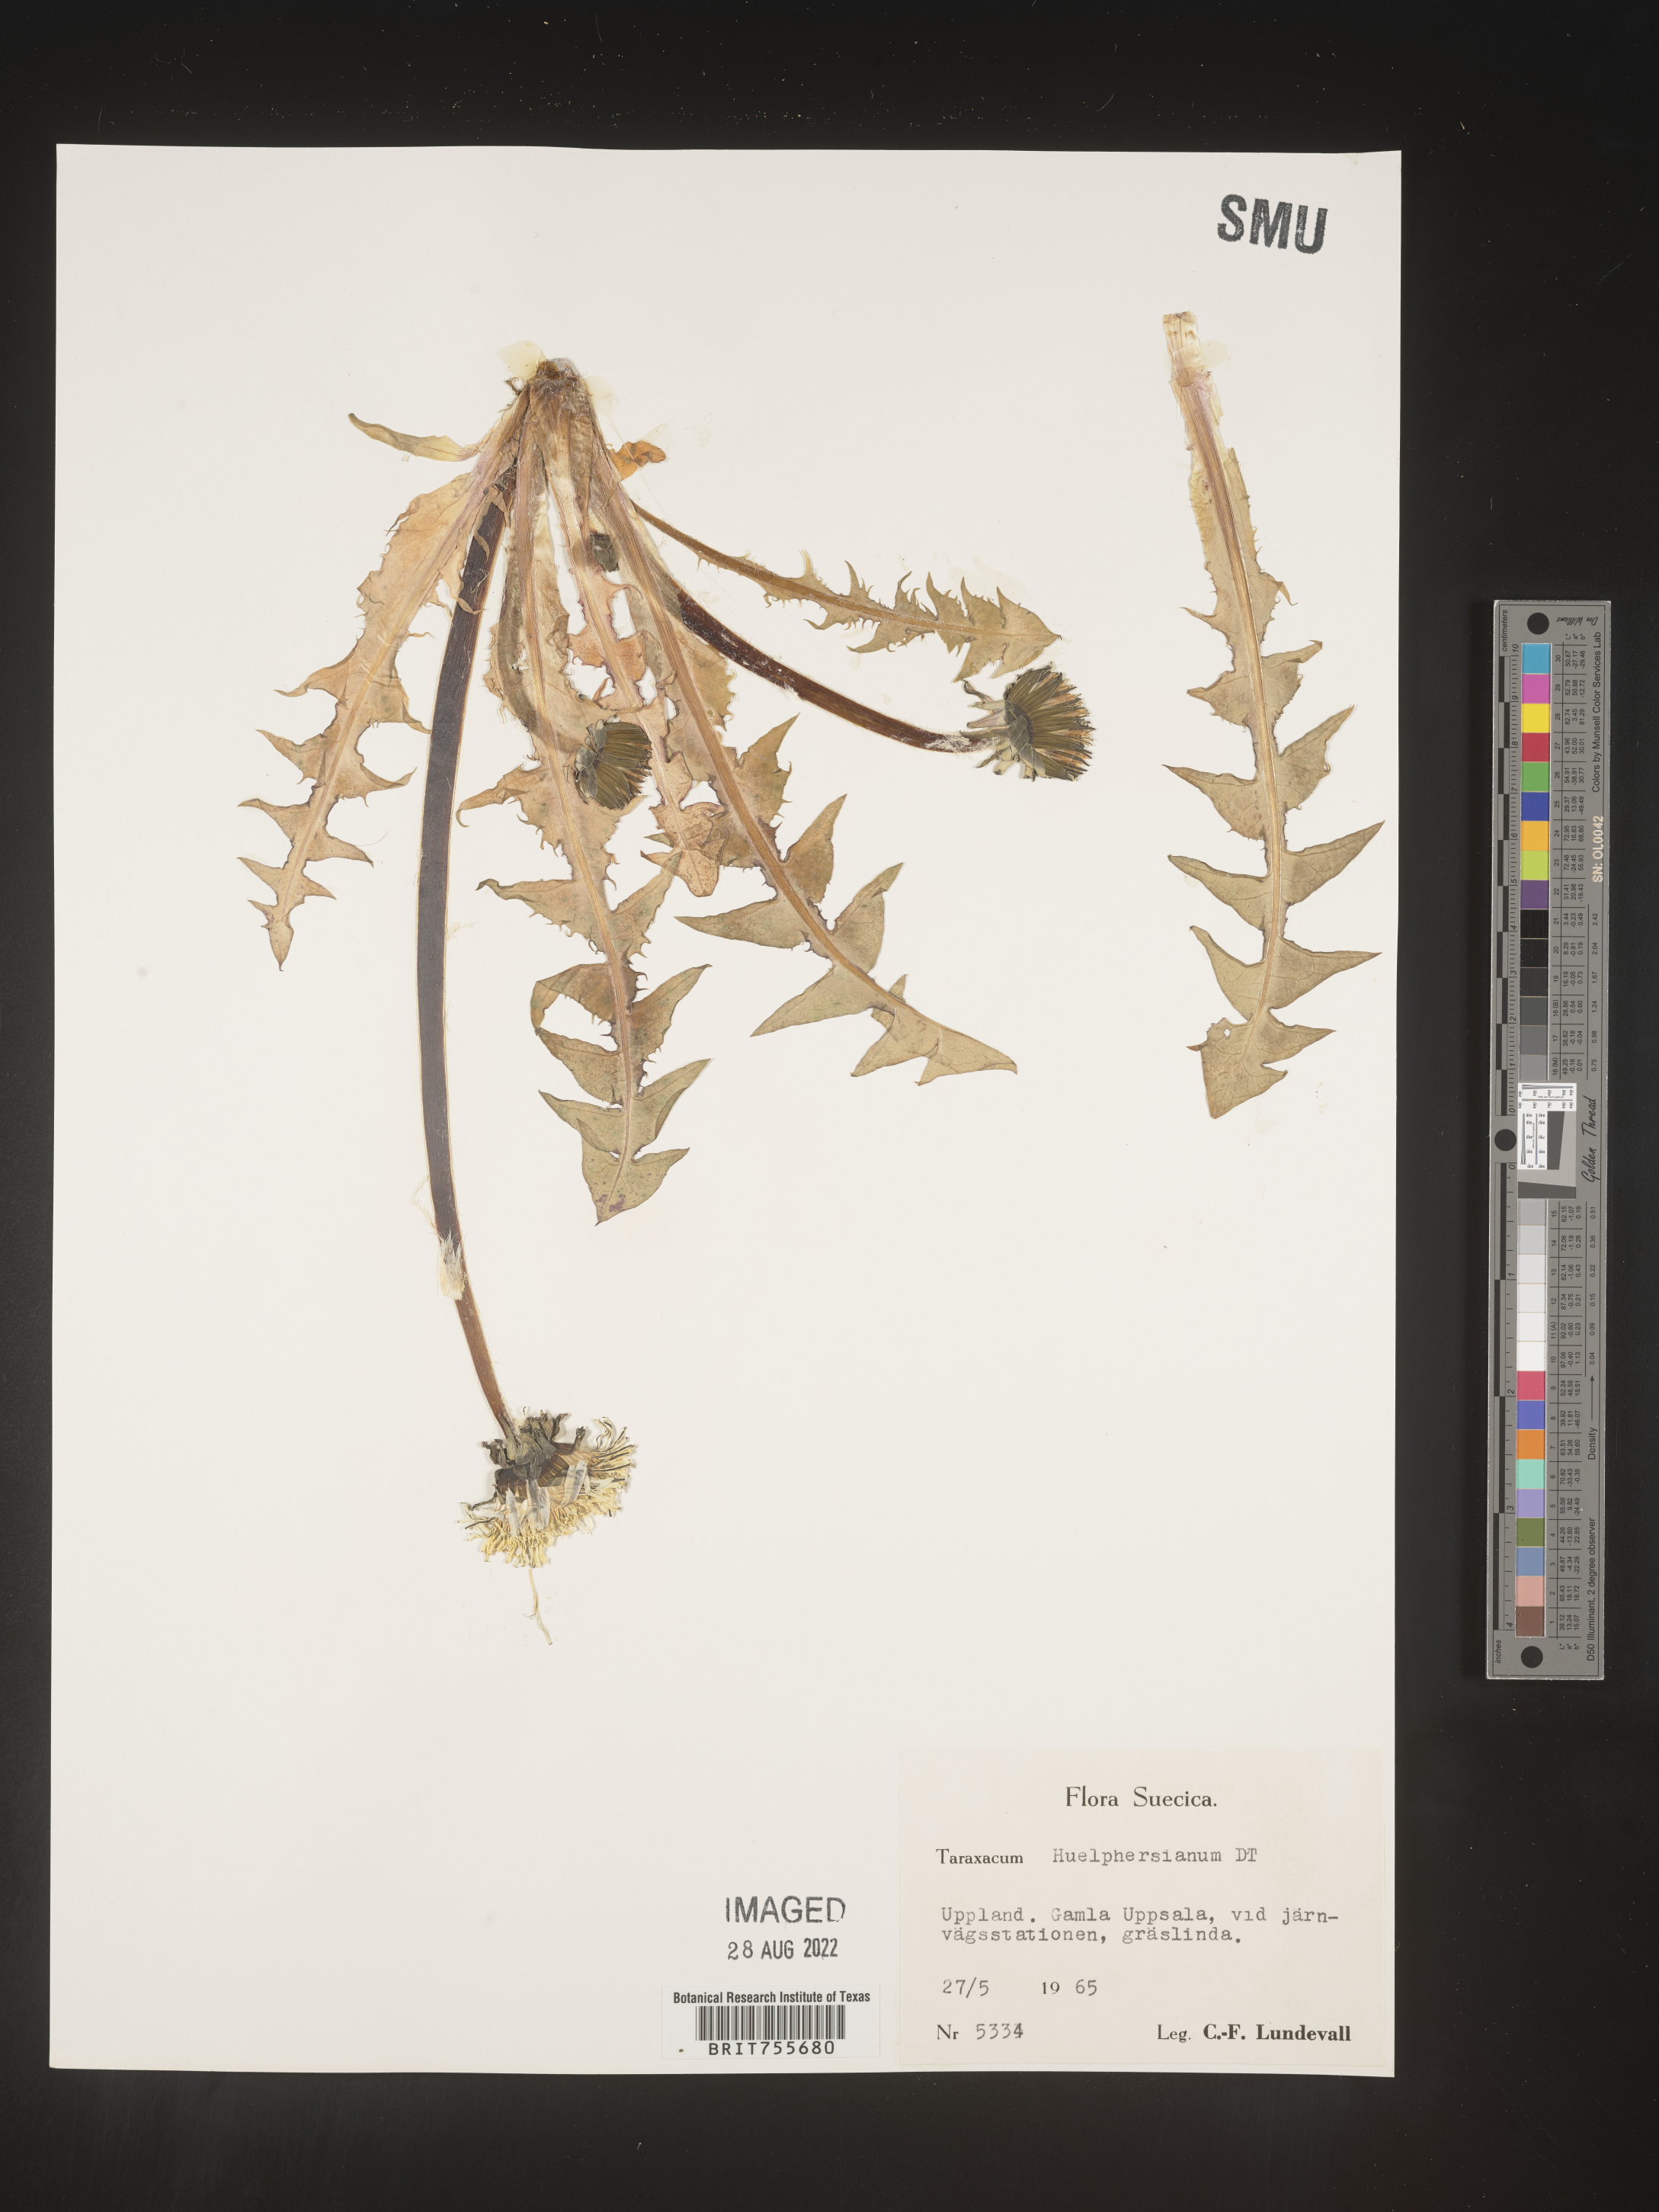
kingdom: Plantae
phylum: Tracheophyta
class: Magnoliopsida
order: Asterales
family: Asteraceae
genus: Taraxacum
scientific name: Taraxacum
